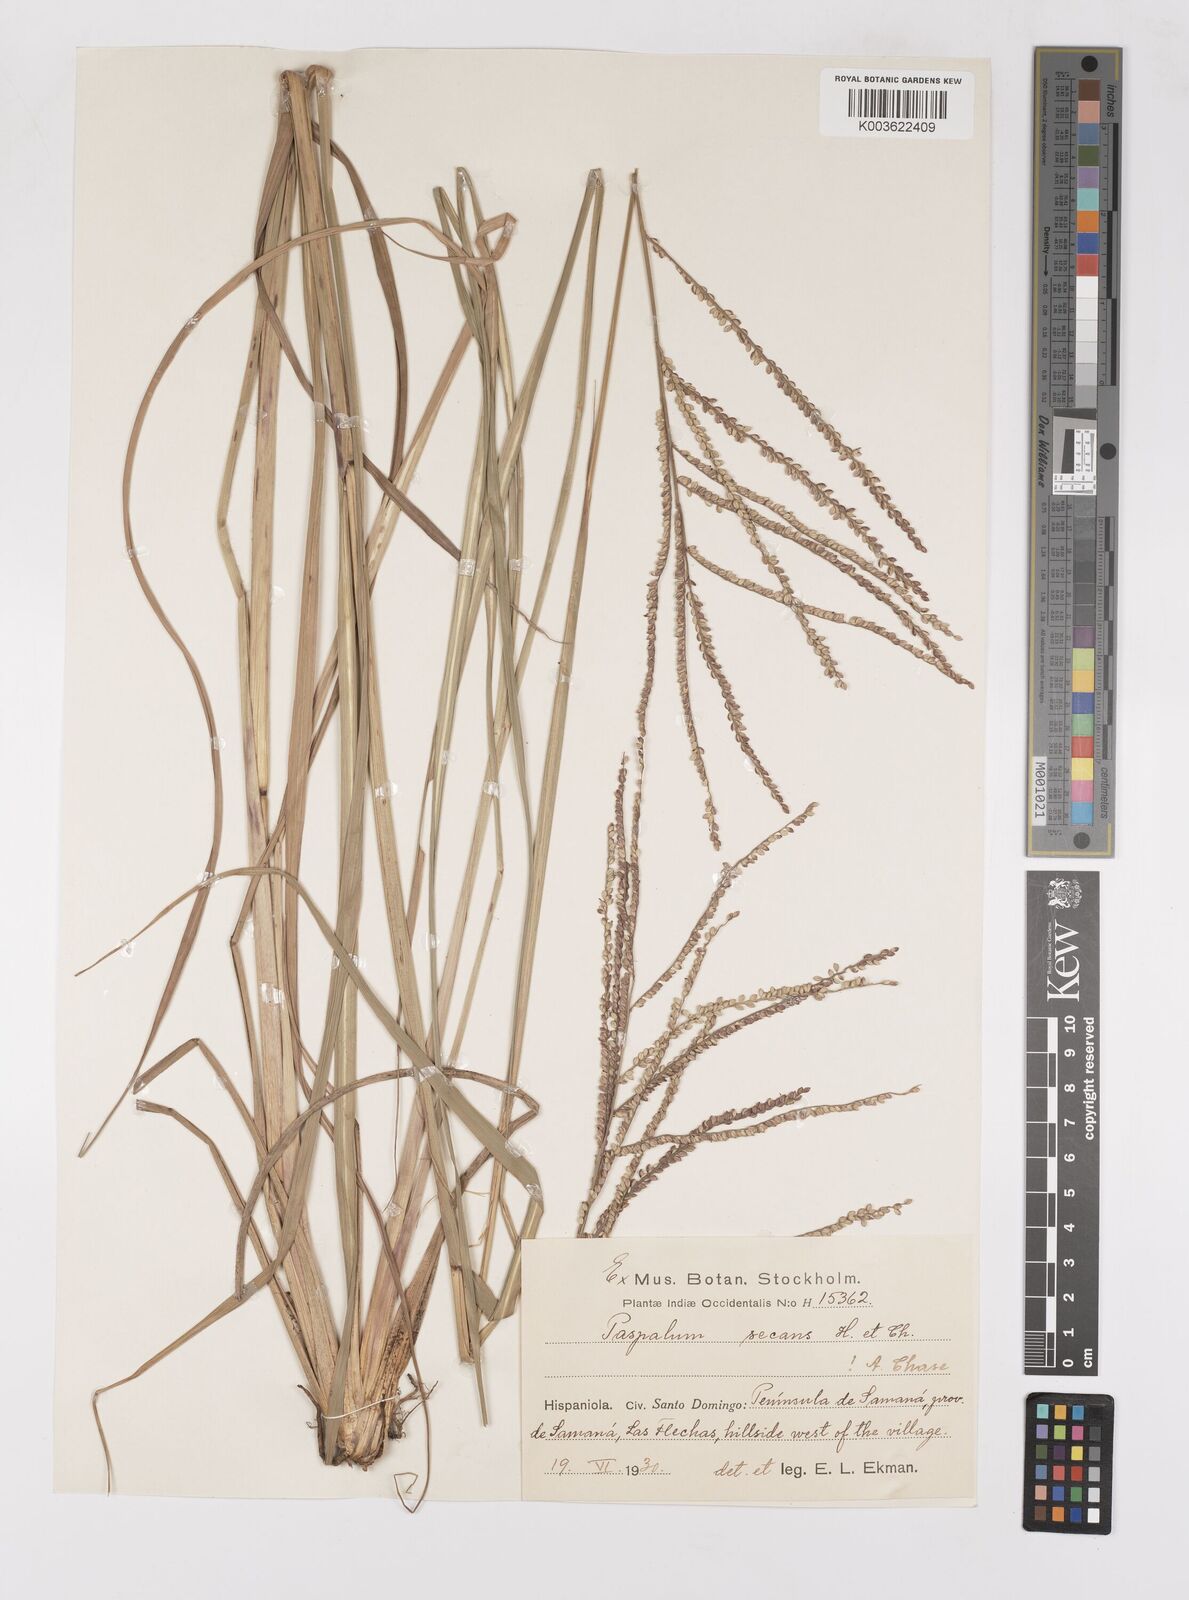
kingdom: Plantae
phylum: Tracheophyta
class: Liliopsida
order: Poales
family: Poaceae
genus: Paspalum
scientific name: Paspalum arundinaceum
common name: Thick ditch crowngrass
